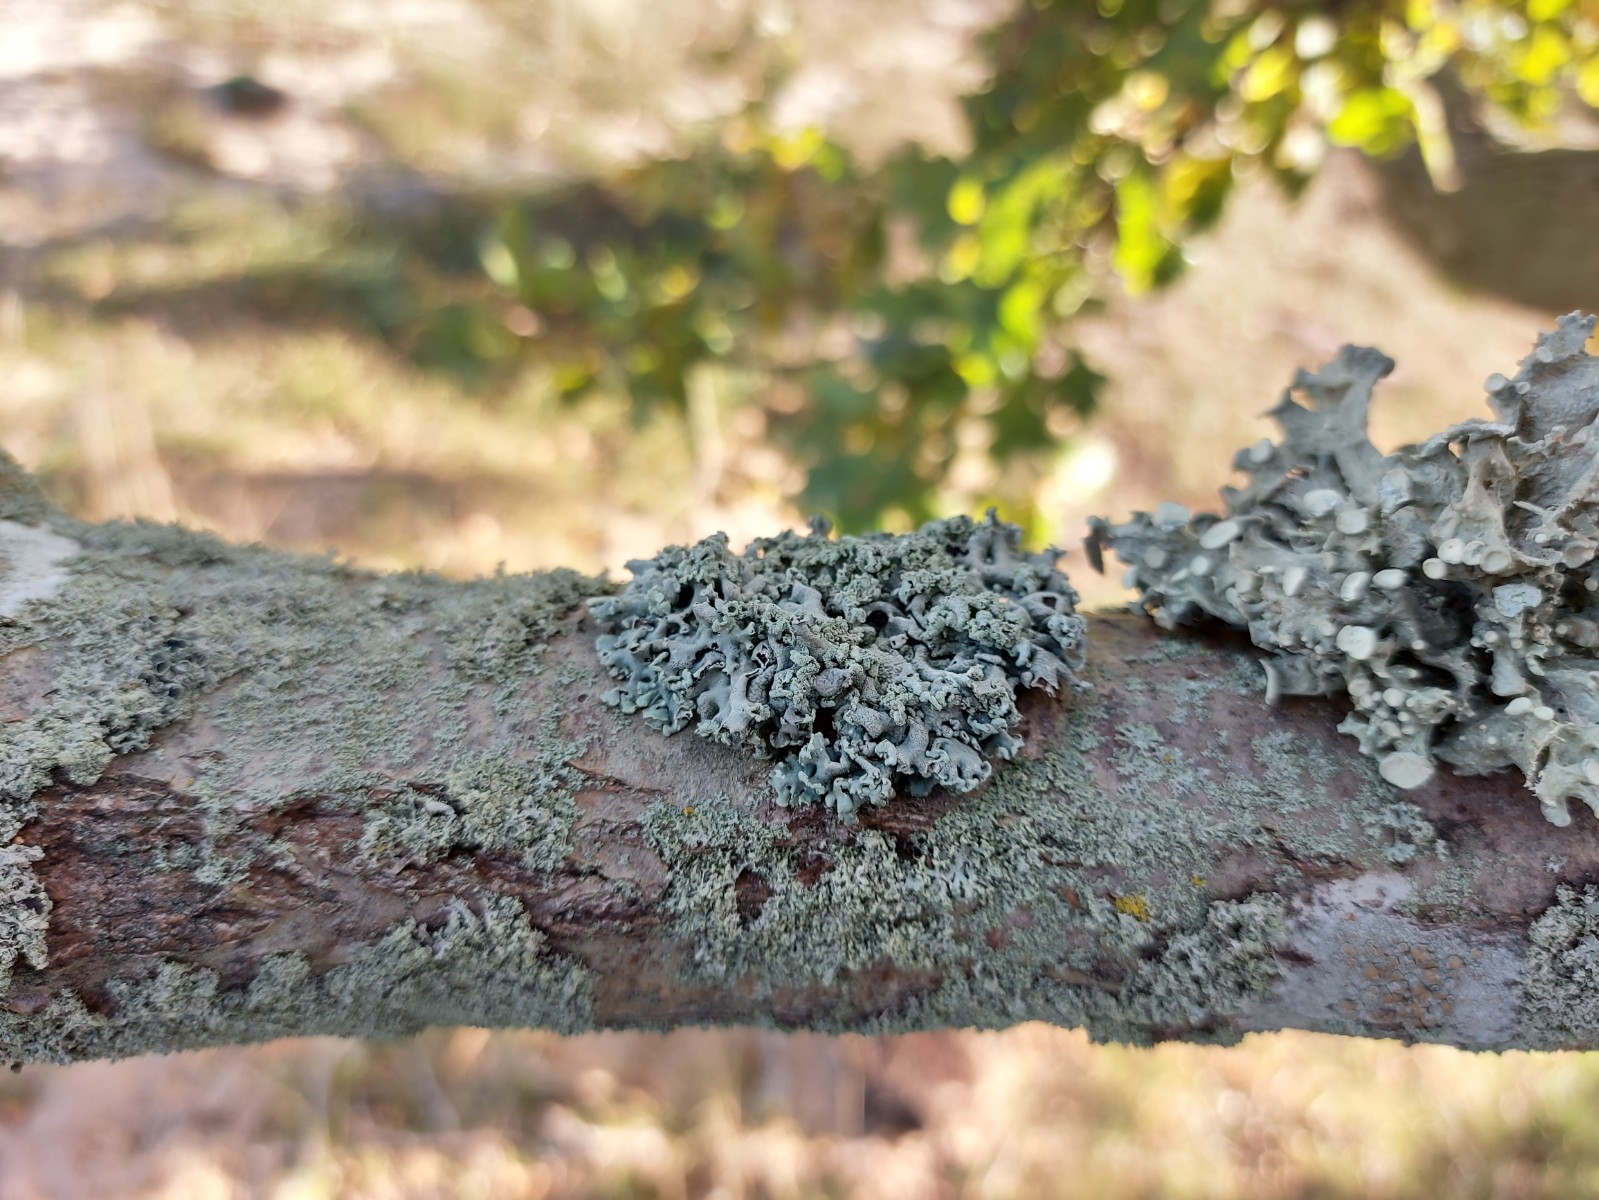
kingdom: Fungi
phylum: Ascomycota
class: Lecanoromycetes
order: Lecanorales
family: Parmeliaceae
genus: Hypogymnia
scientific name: Hypogymnia physodes
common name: almindelig kvistlav
